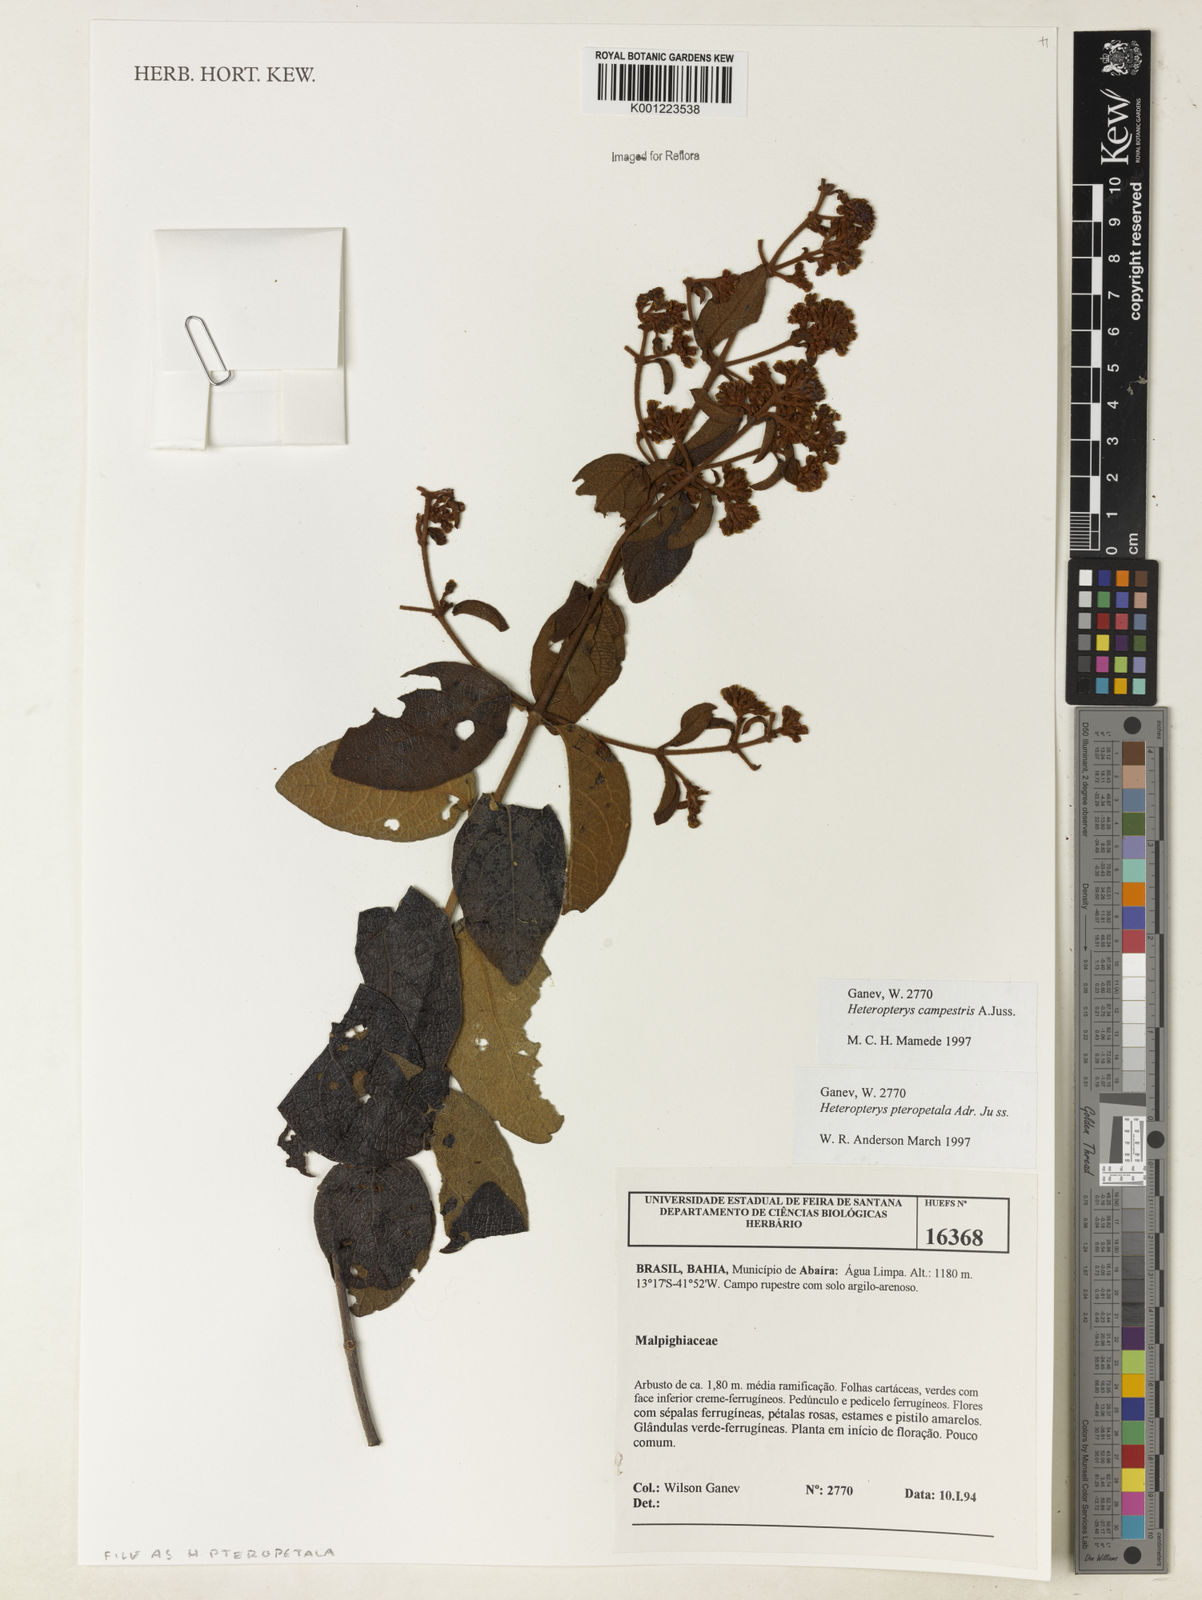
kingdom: Plantae
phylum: Tracheophyta
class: Magnoliopsida
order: Malpighiales
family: Malpighiaceae
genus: Heteropterys
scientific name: Heteropterys pteropetala
